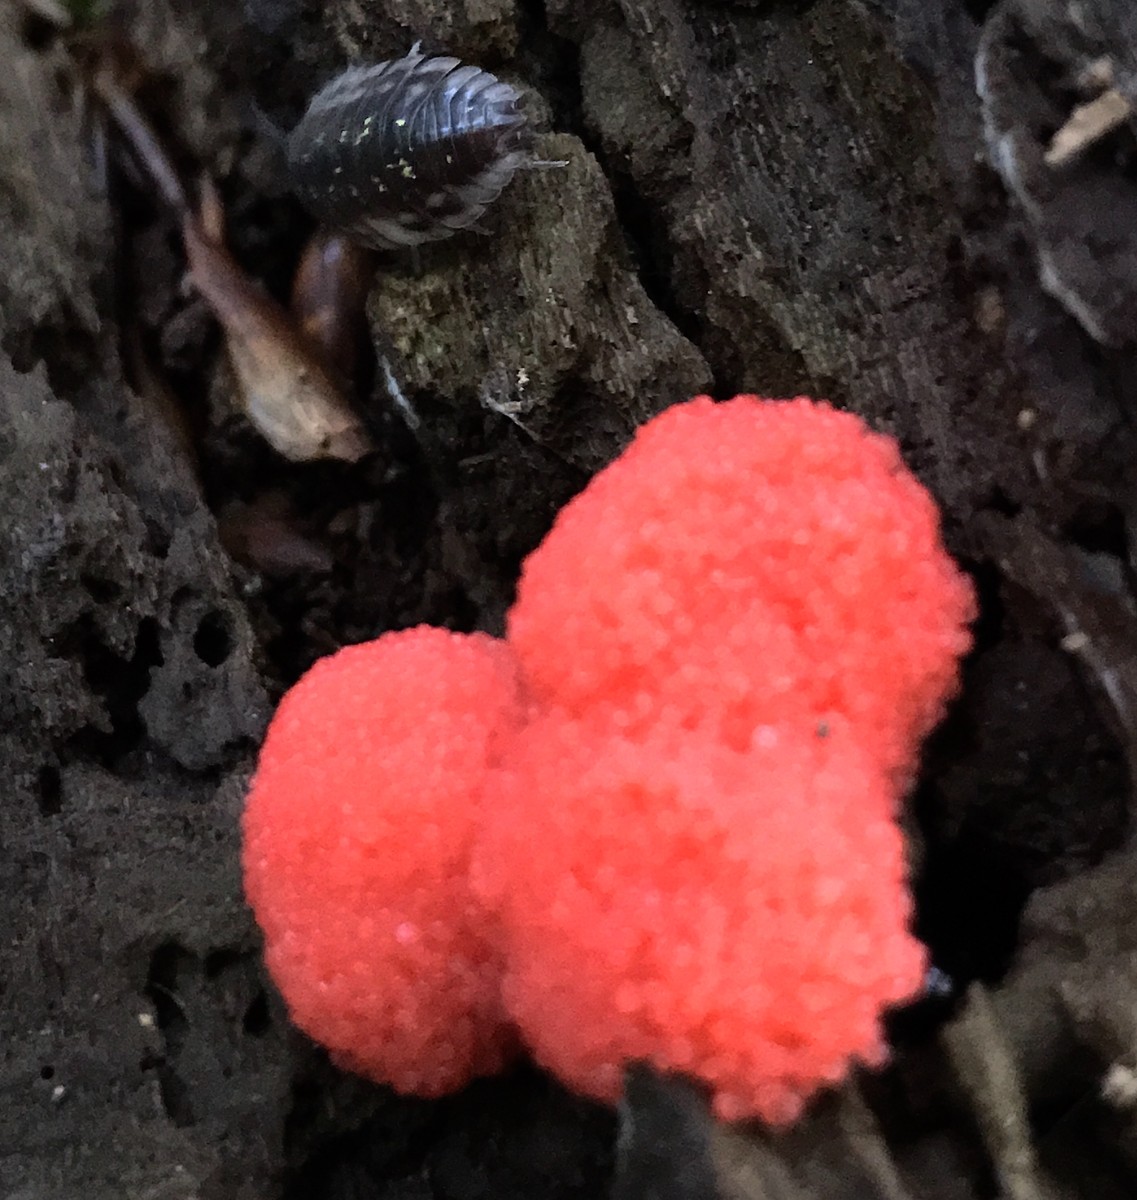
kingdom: Protozoa
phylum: Mycetozoa
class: Myxomycetes
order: Cribrariales
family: Tubiferaceae
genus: Tubifera
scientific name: Tubifera ferruginosa
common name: kanel-støvrør
